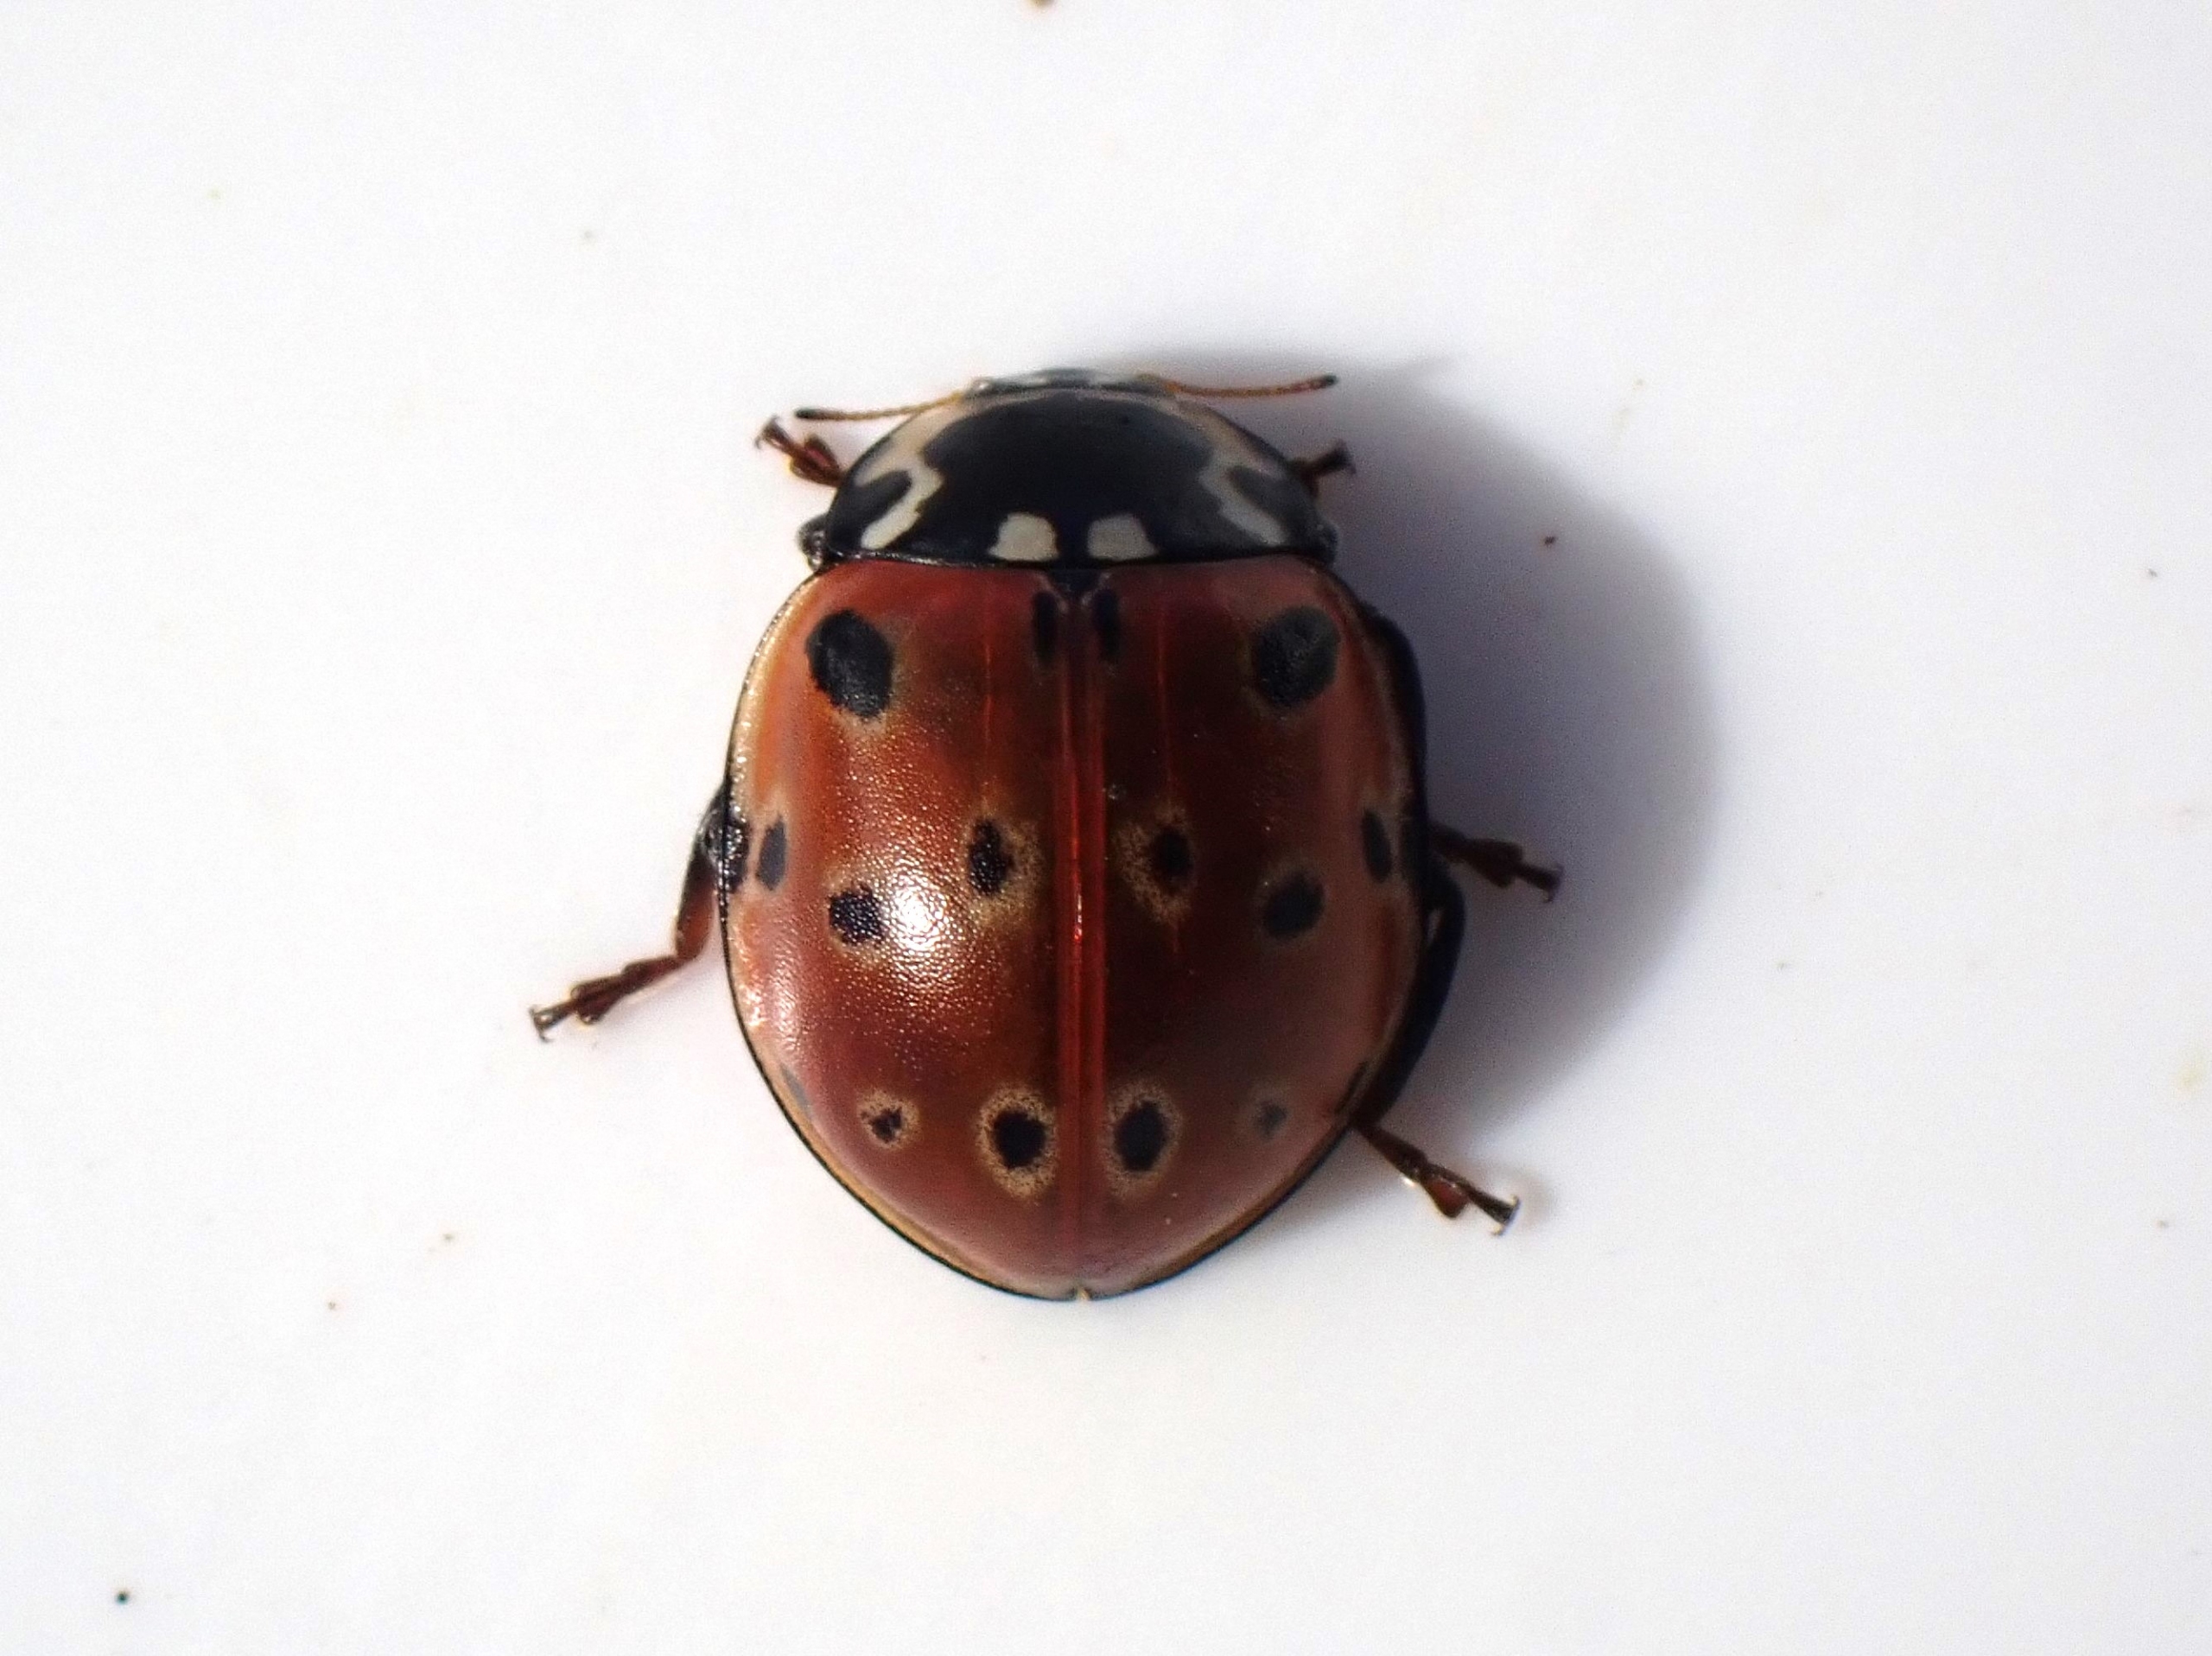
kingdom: Animalia
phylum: Arthropoda
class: Insecta
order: Coleoptera
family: Coccinellidae
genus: Anatis
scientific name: Anatis ocellata
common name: Øjeplettet mariehøne
